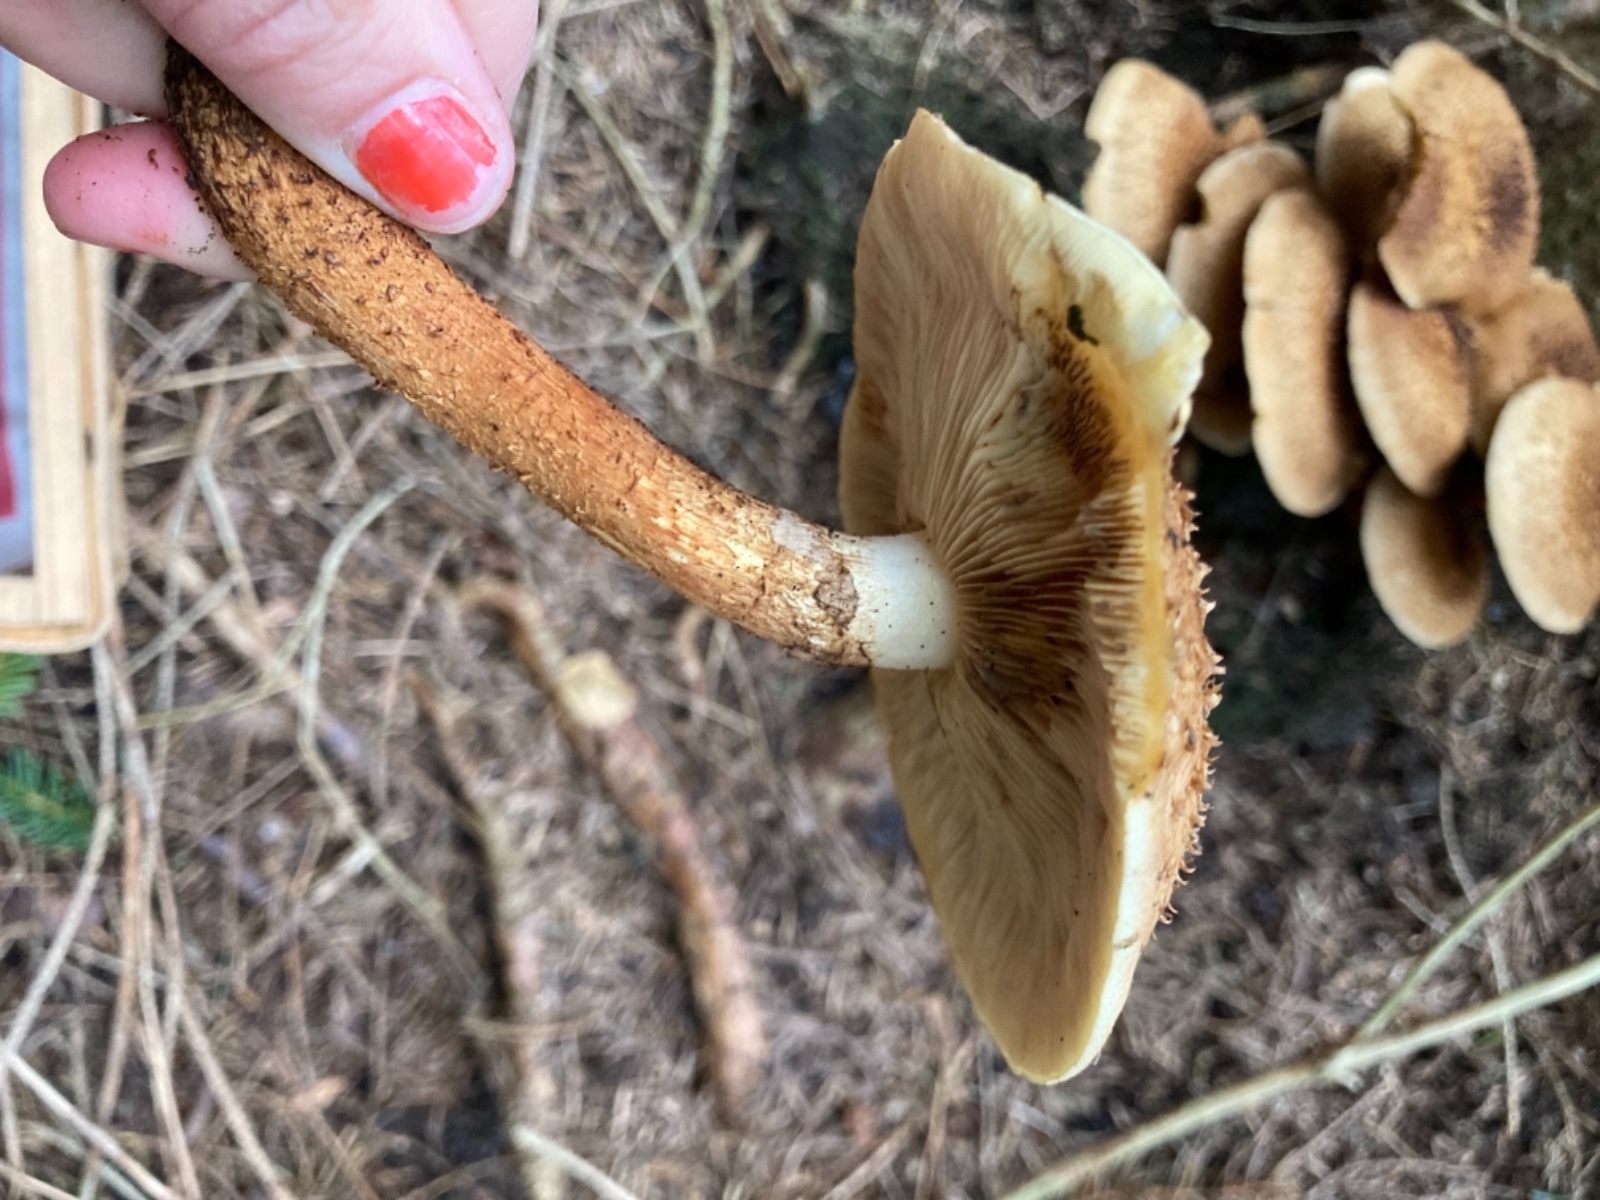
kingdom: Fungi
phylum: Basidiomycota
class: Agaricomycetes
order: Agaricales
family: Strophariaceae
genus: Pholiota
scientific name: Pholiota squarrosa
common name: krumskællet skælhat
